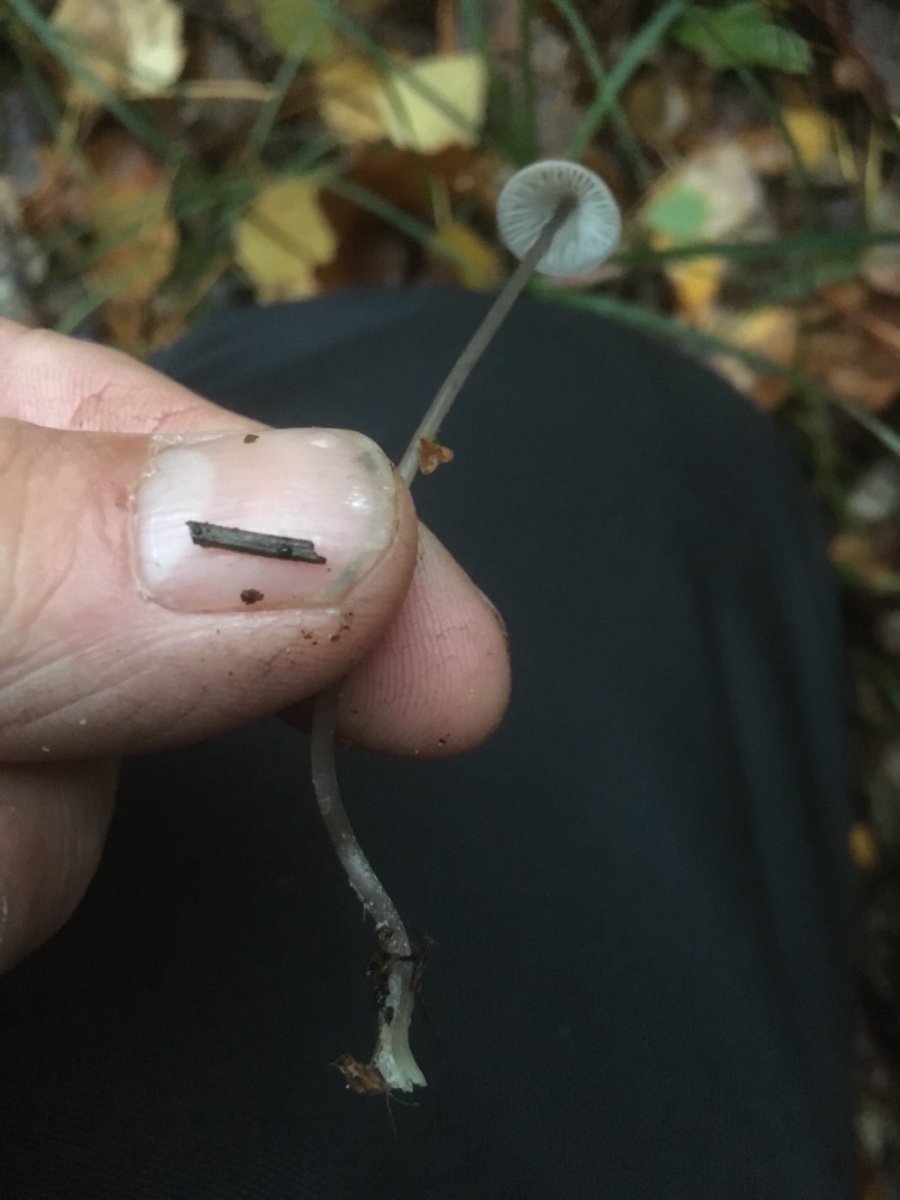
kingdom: Fungi
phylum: Basidiomycota
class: Agaricomycetes
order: Agaricales
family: Mycenaceae
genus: Mycena
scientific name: Mycena
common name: huesvamp
